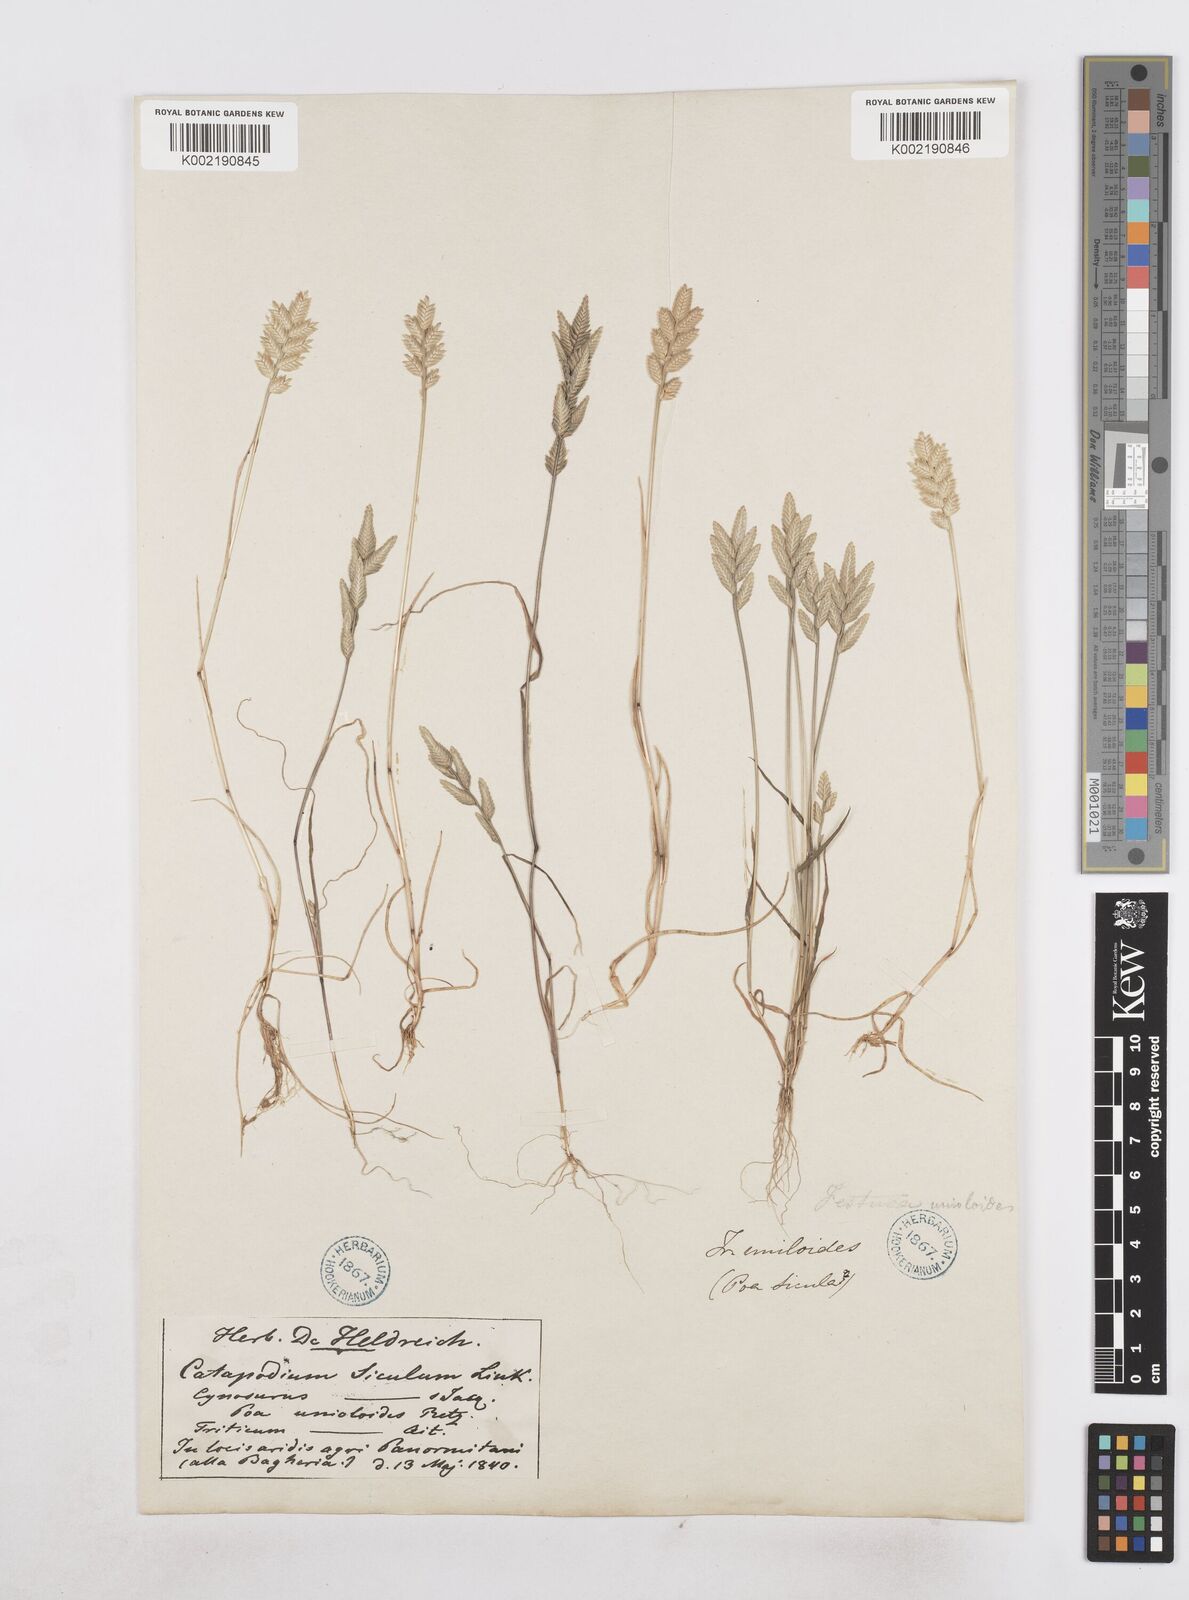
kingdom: Plantae
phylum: Tracheophyta
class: Liliopsida
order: Poales
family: Poaceae
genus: Desmazeria
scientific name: Desmazeria sicula
